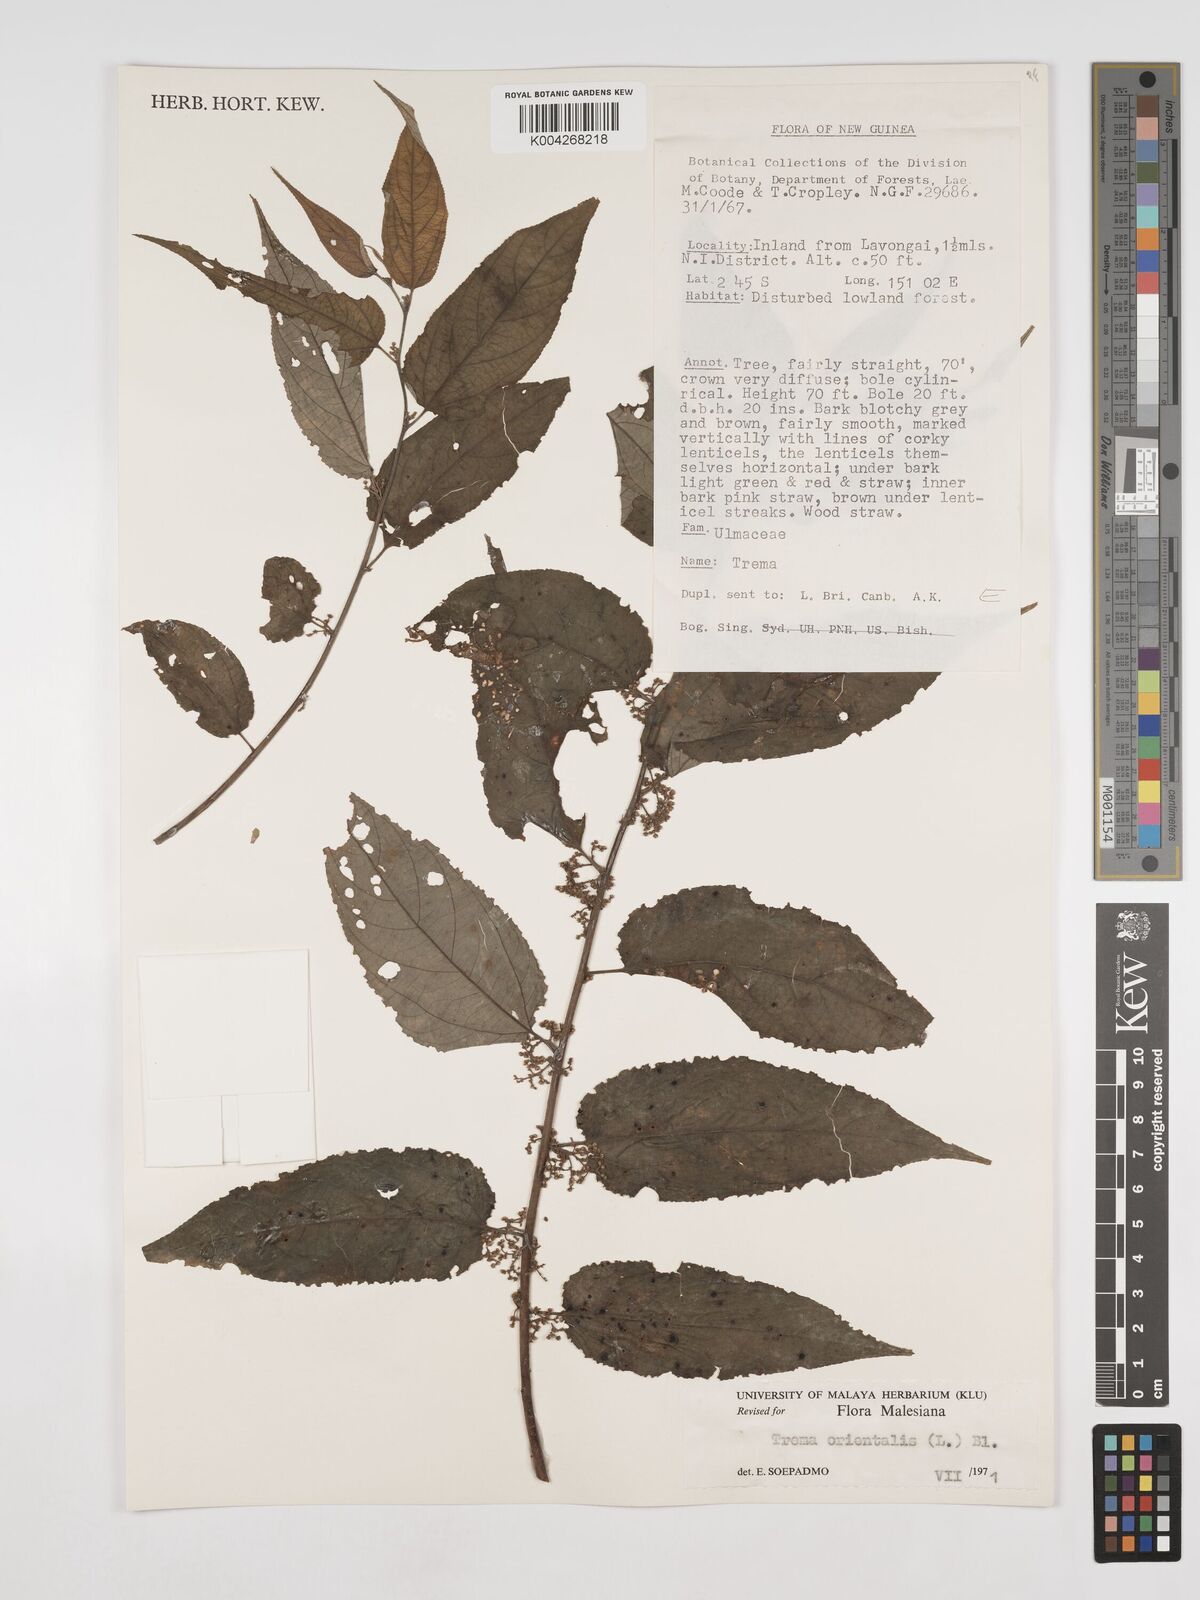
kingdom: Plantae
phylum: Tracheophyta
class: Magnoliopsida
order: Rosales
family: Cannabaceae
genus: Trema
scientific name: Trema orientale
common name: Indian charcoal tree
